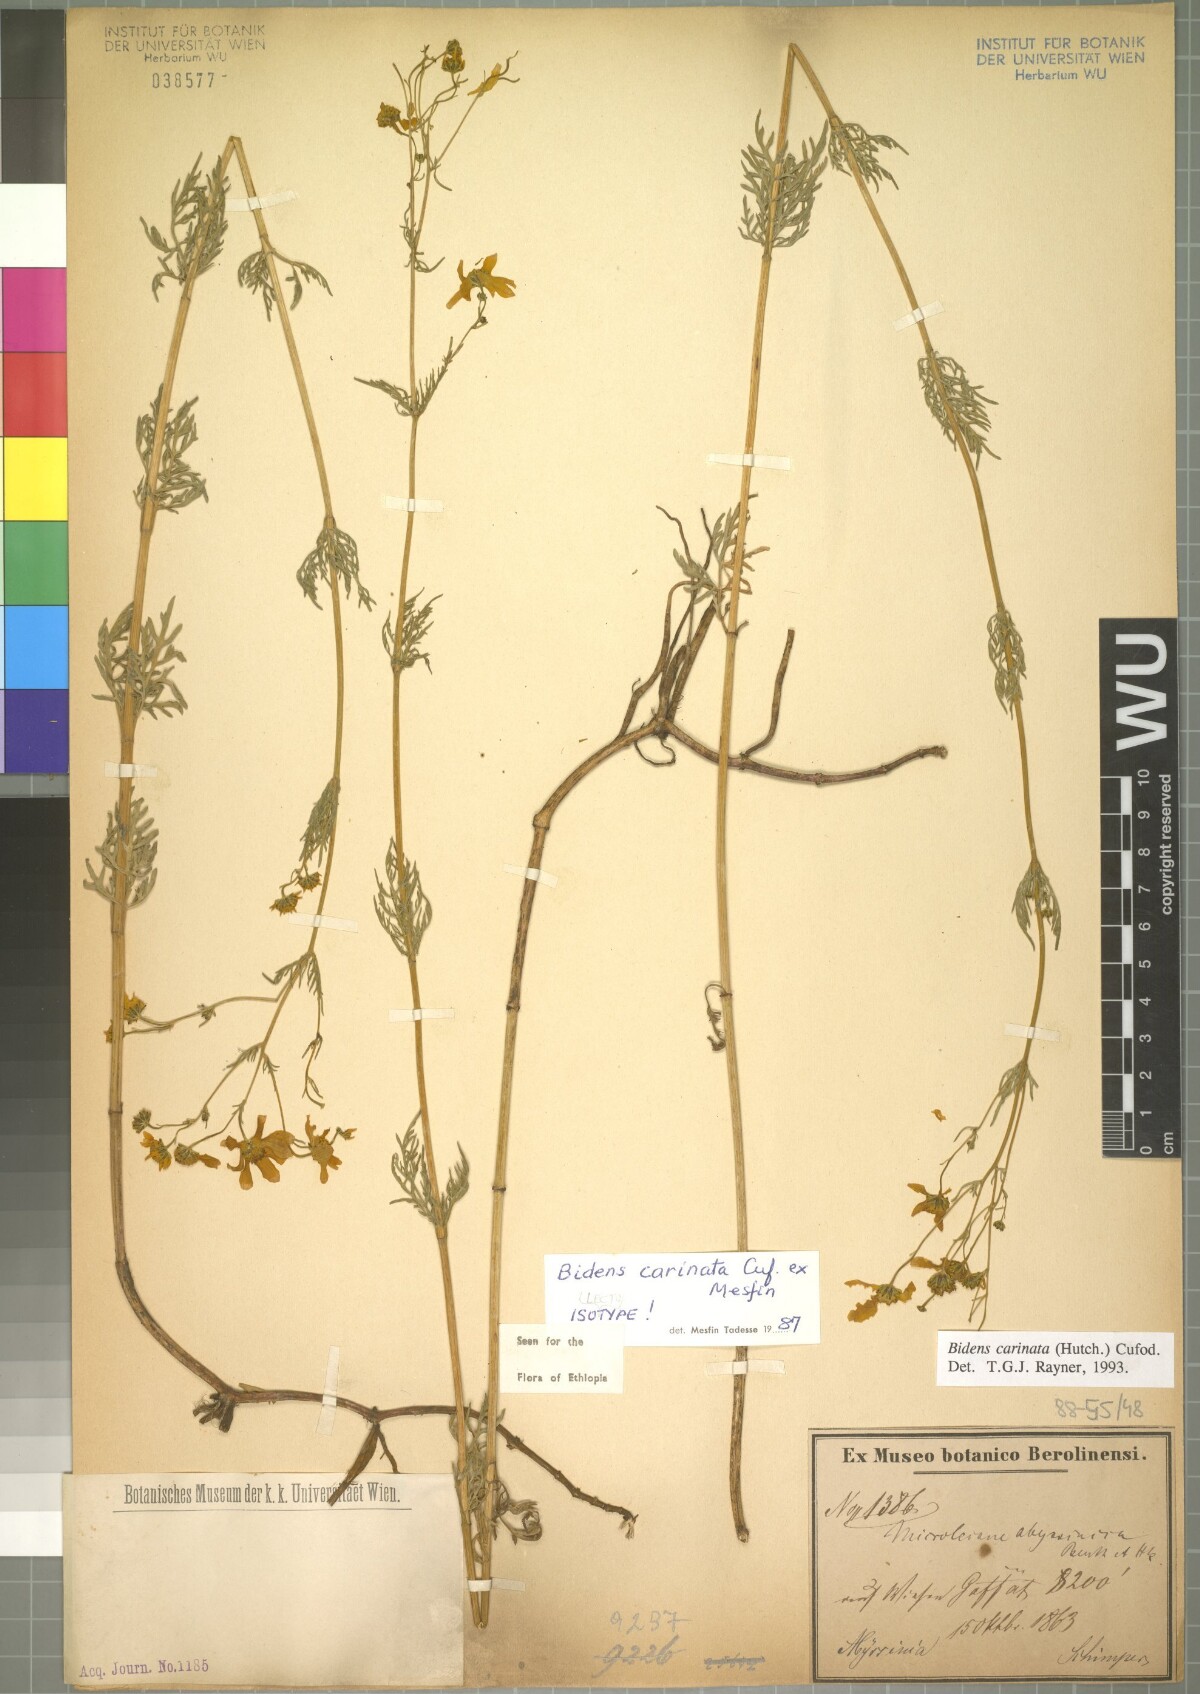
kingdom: Plantae
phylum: Tracheophyta
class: Magnoliopsida
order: Asterales
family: Asteraceae
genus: Bidens
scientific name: Bidens carinata
